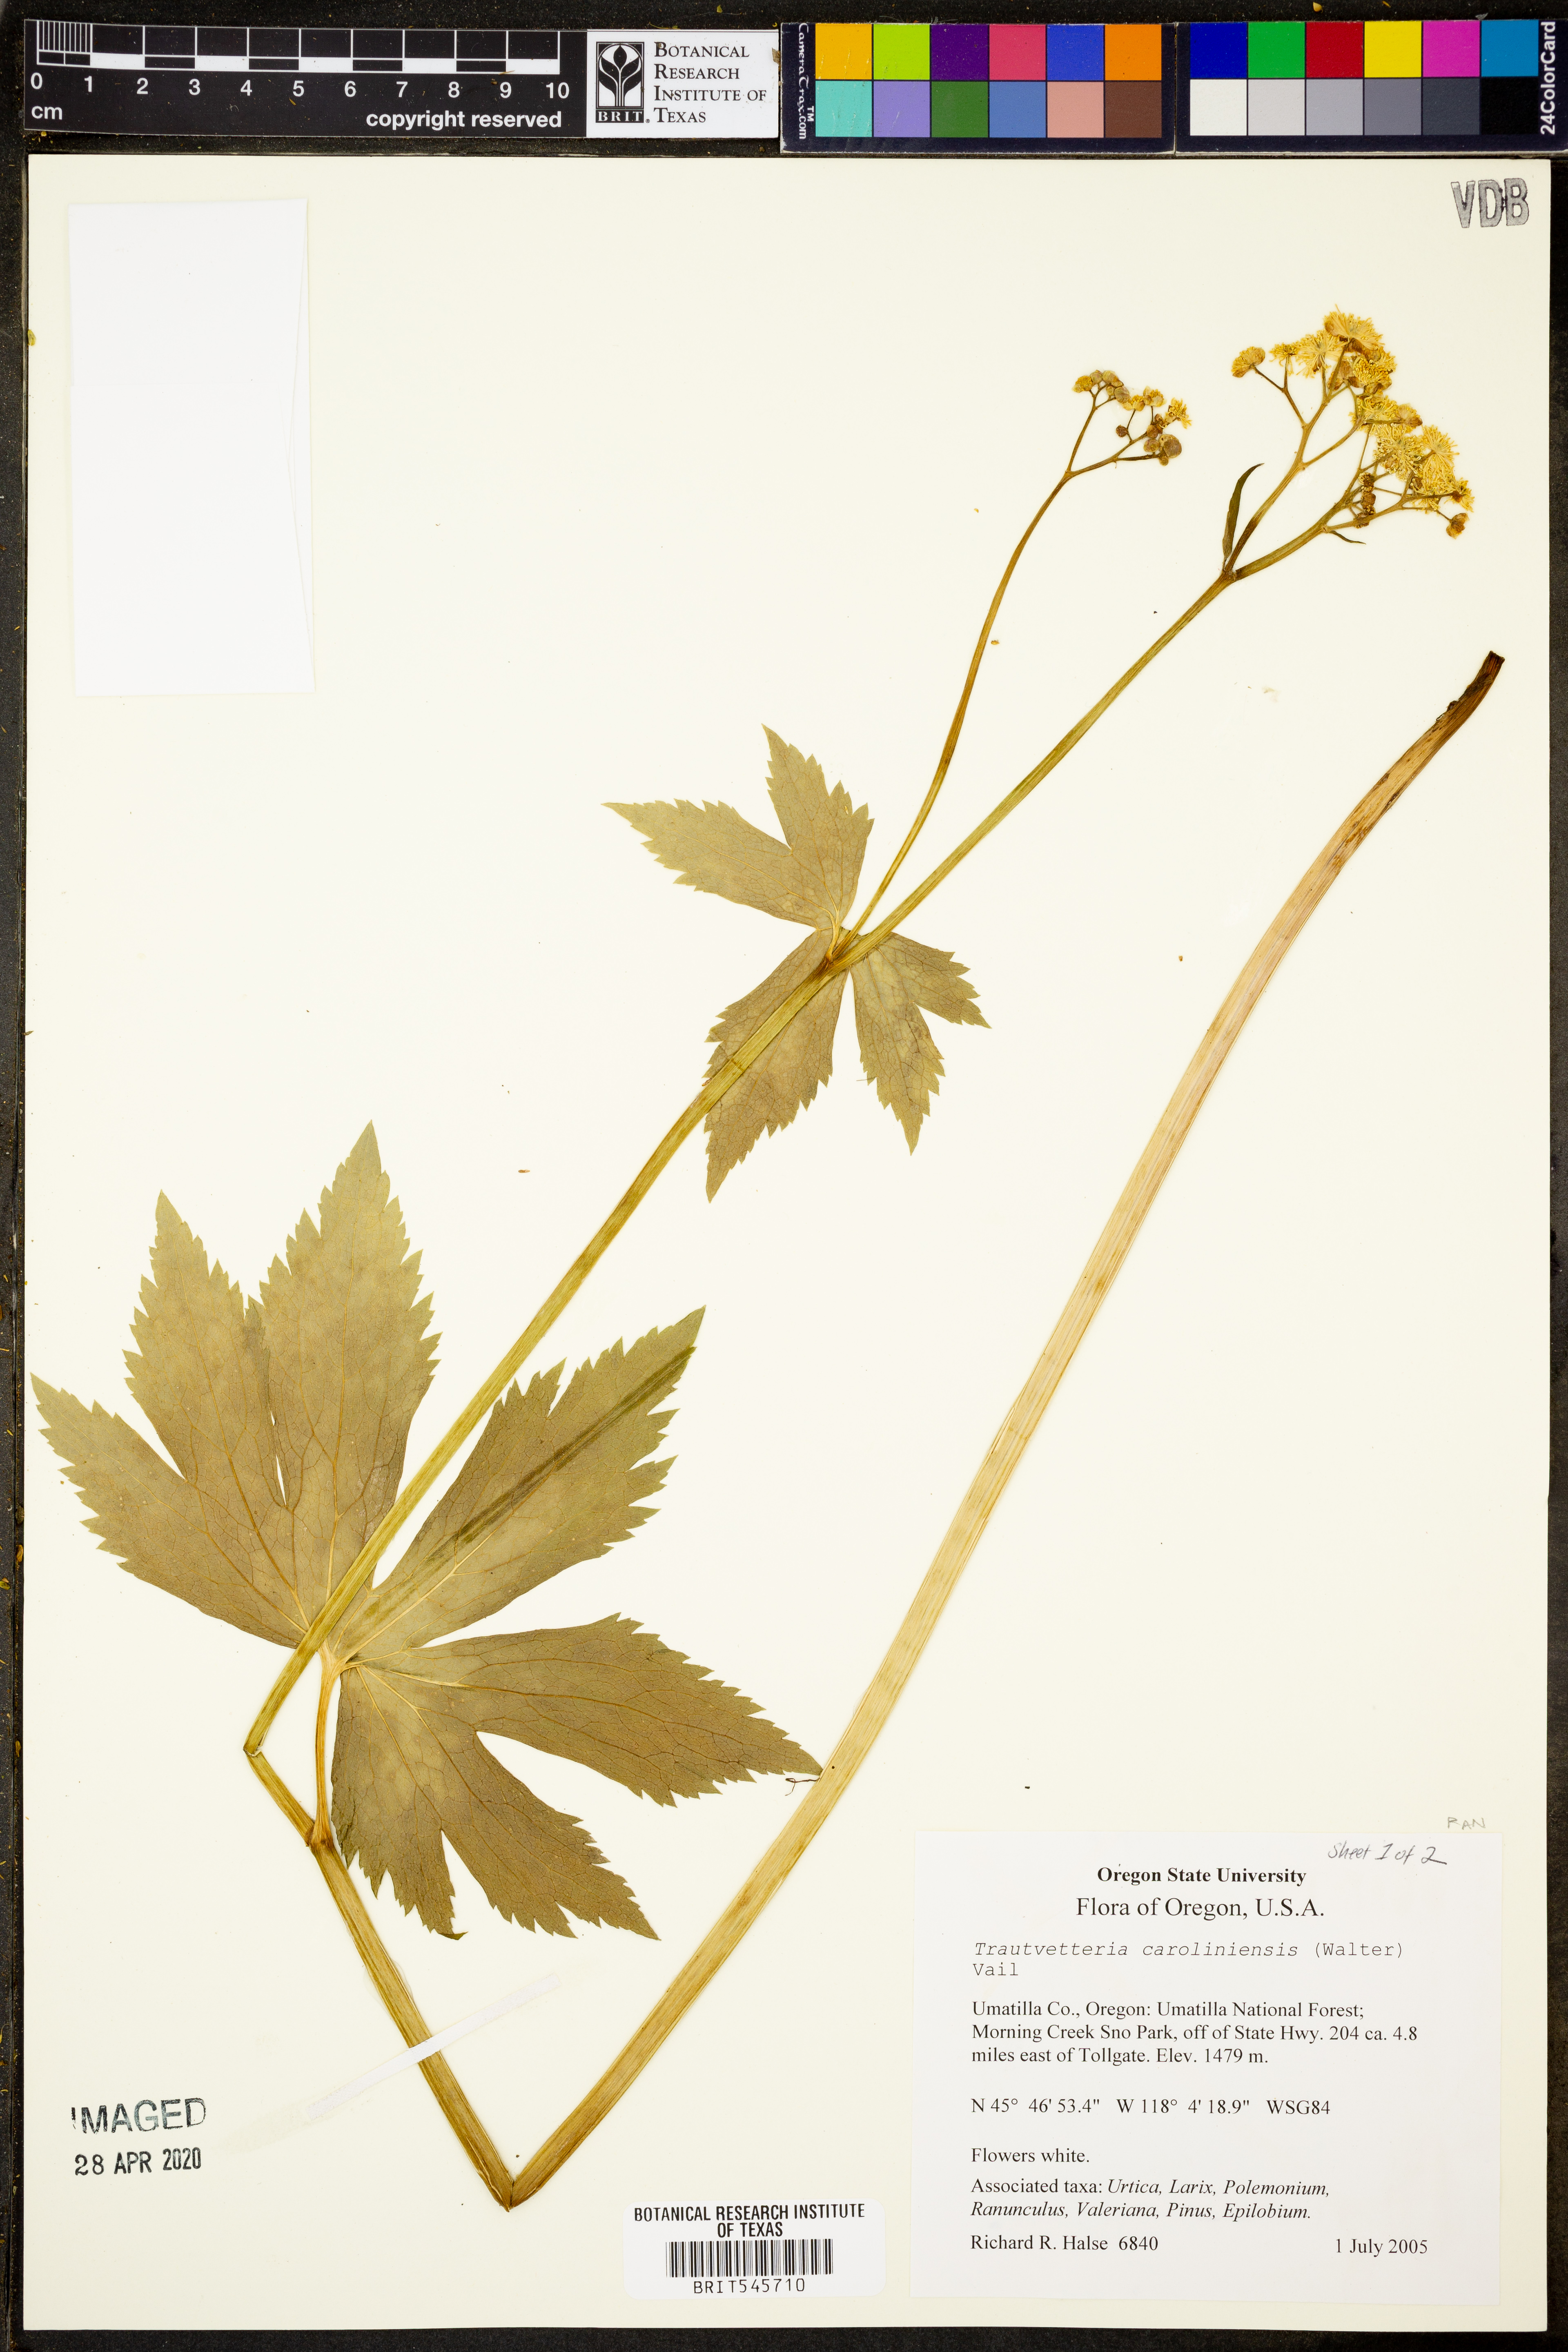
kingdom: Plantae
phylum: Tracheophyta
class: Magnoliopsida
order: Ranunculales
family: Ranunculaceae
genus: Trautvetteria
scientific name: Trautvetteria carolinensis
